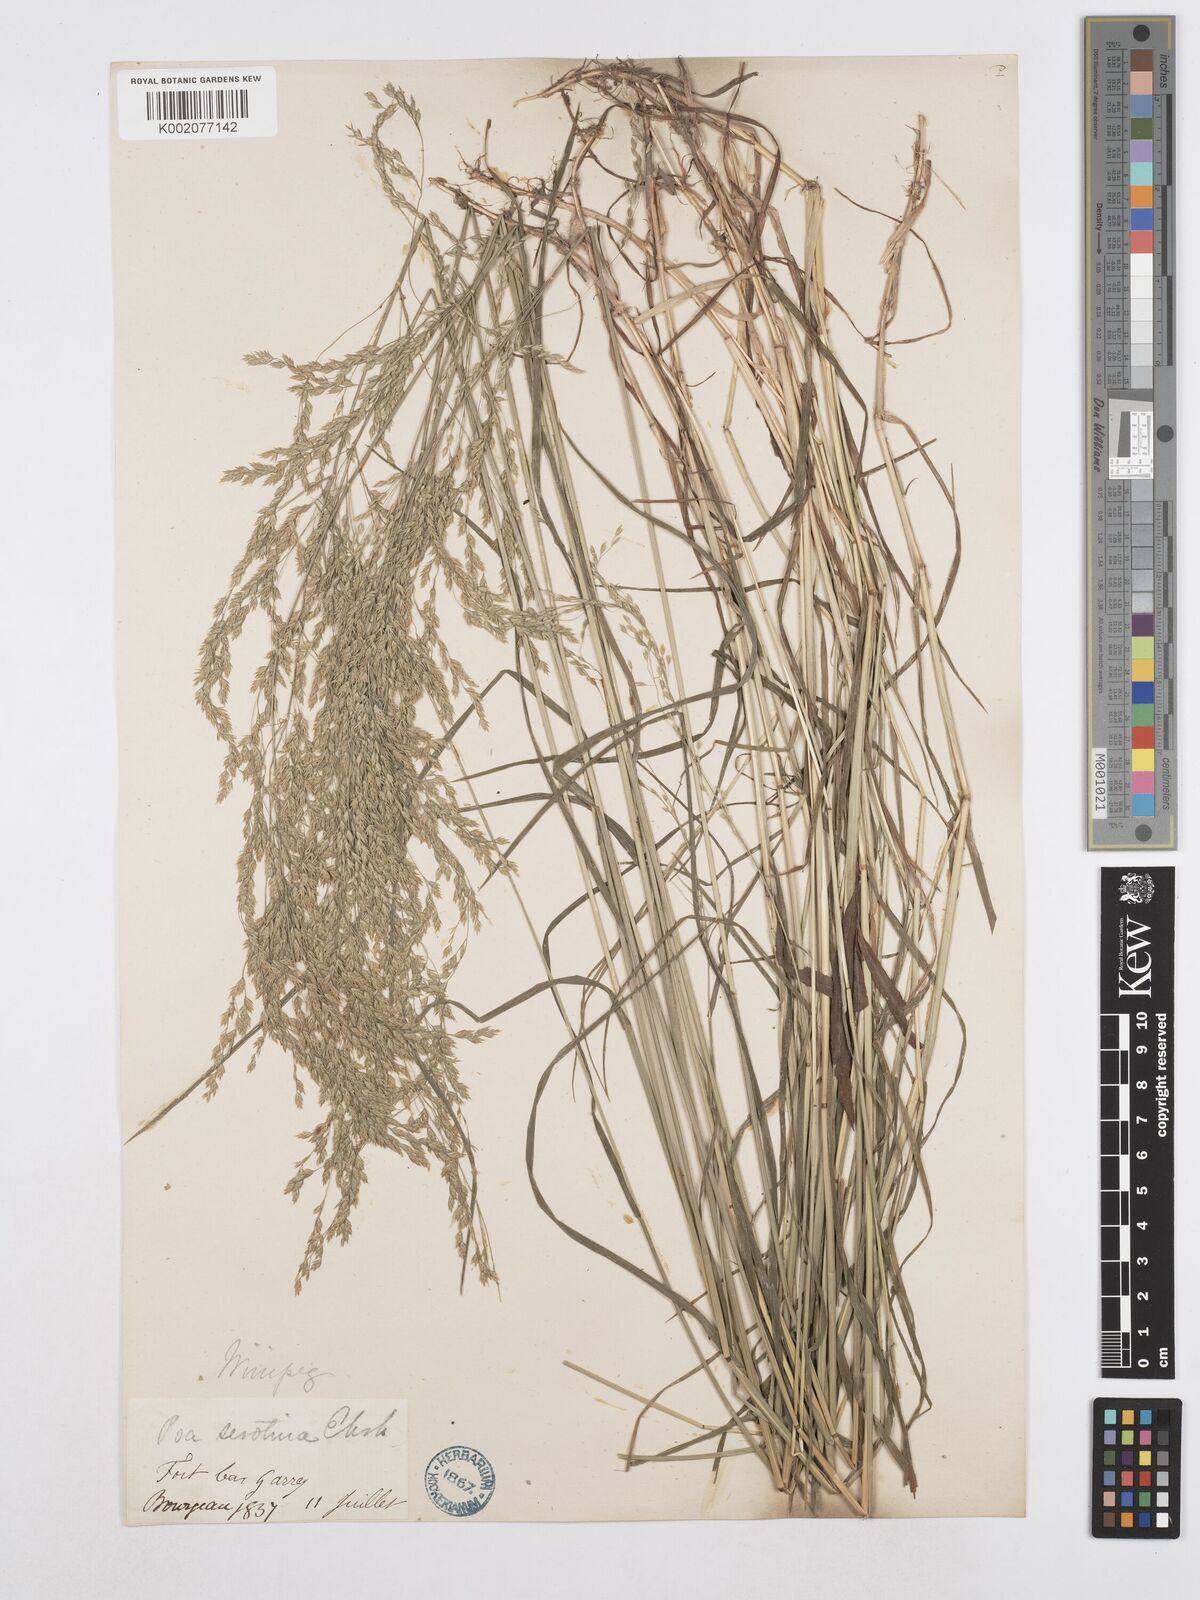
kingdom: Plantae
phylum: Tracheophyta
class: Liliopsida
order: Poales
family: Poaceae
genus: Poa
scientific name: Poa palustris
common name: Swamp meadow-grass
